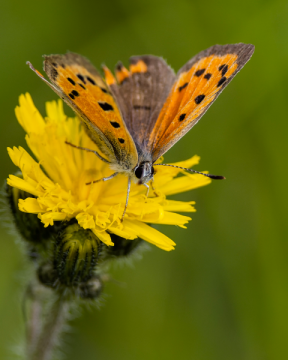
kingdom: Animalia
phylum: Arthropoda
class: Insecta
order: Lepidoptera
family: Lycaenidae
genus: Lycaena
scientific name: Lycaena phlaeas
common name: American Copper
